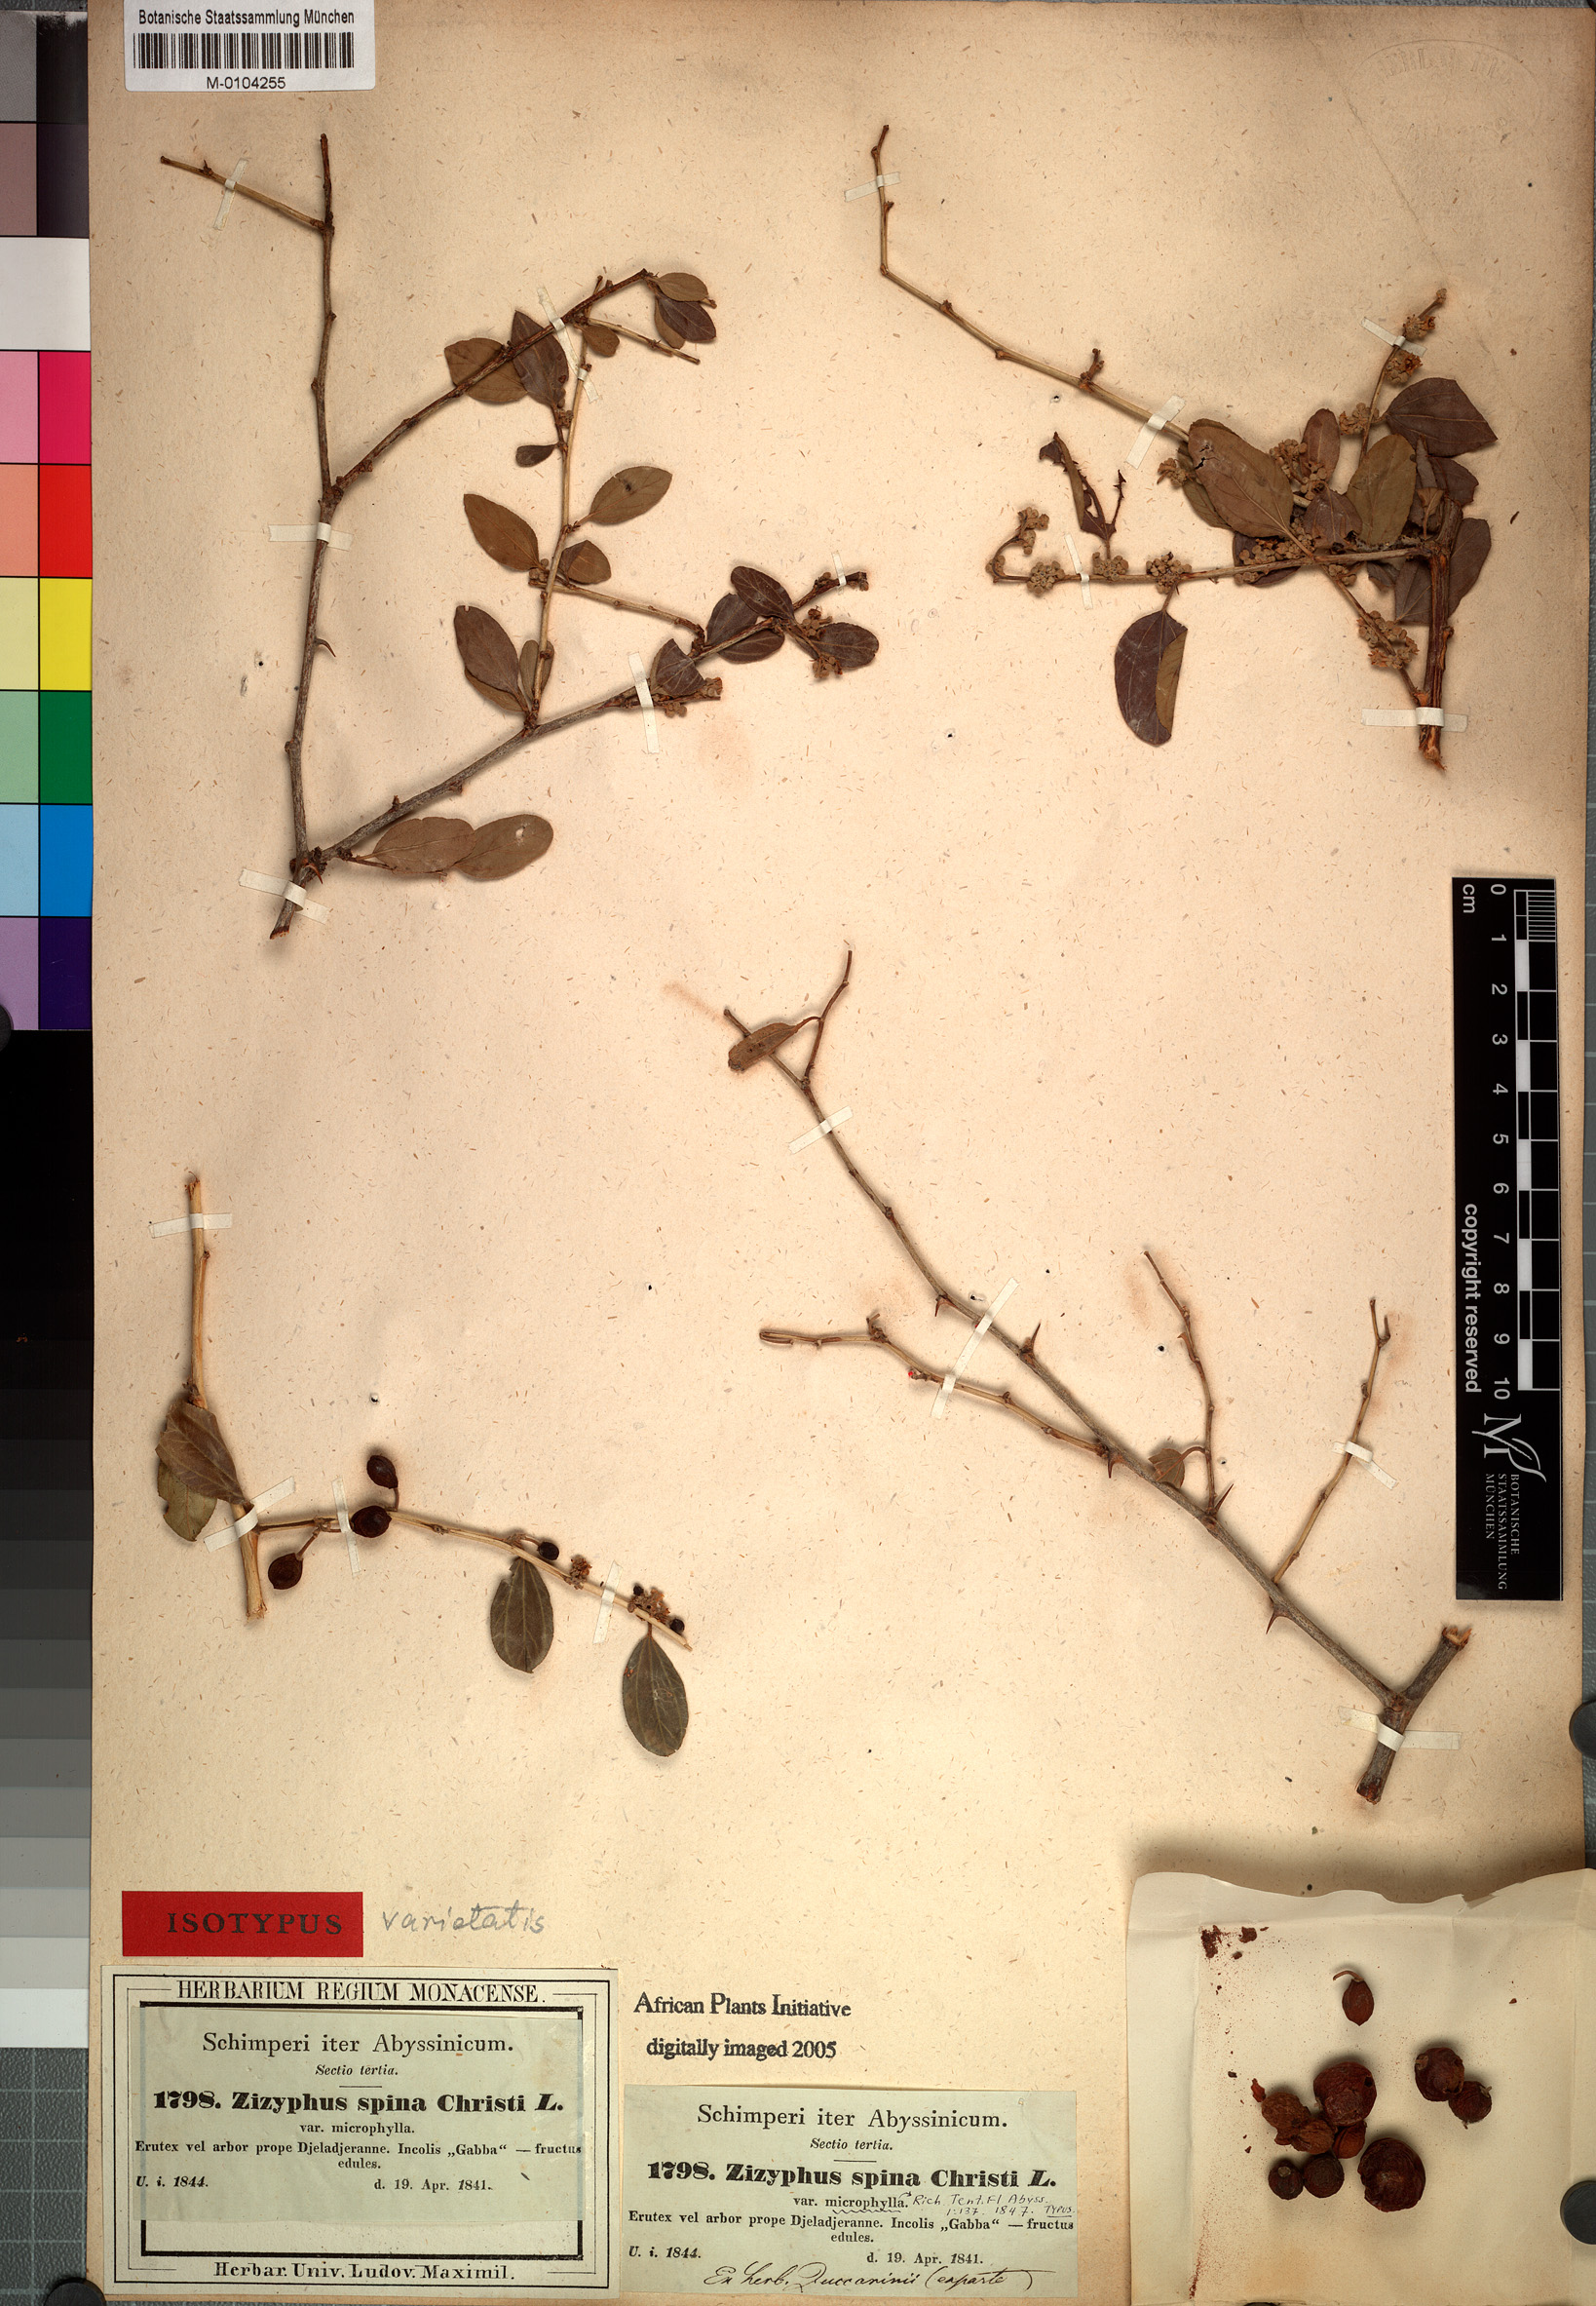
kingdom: Plantae
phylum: Tracheophyta
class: Magnoliopsida
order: Rosales
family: Rhamnaceae
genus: Ziziphus
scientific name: Ziziphus lotus
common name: Lotus
